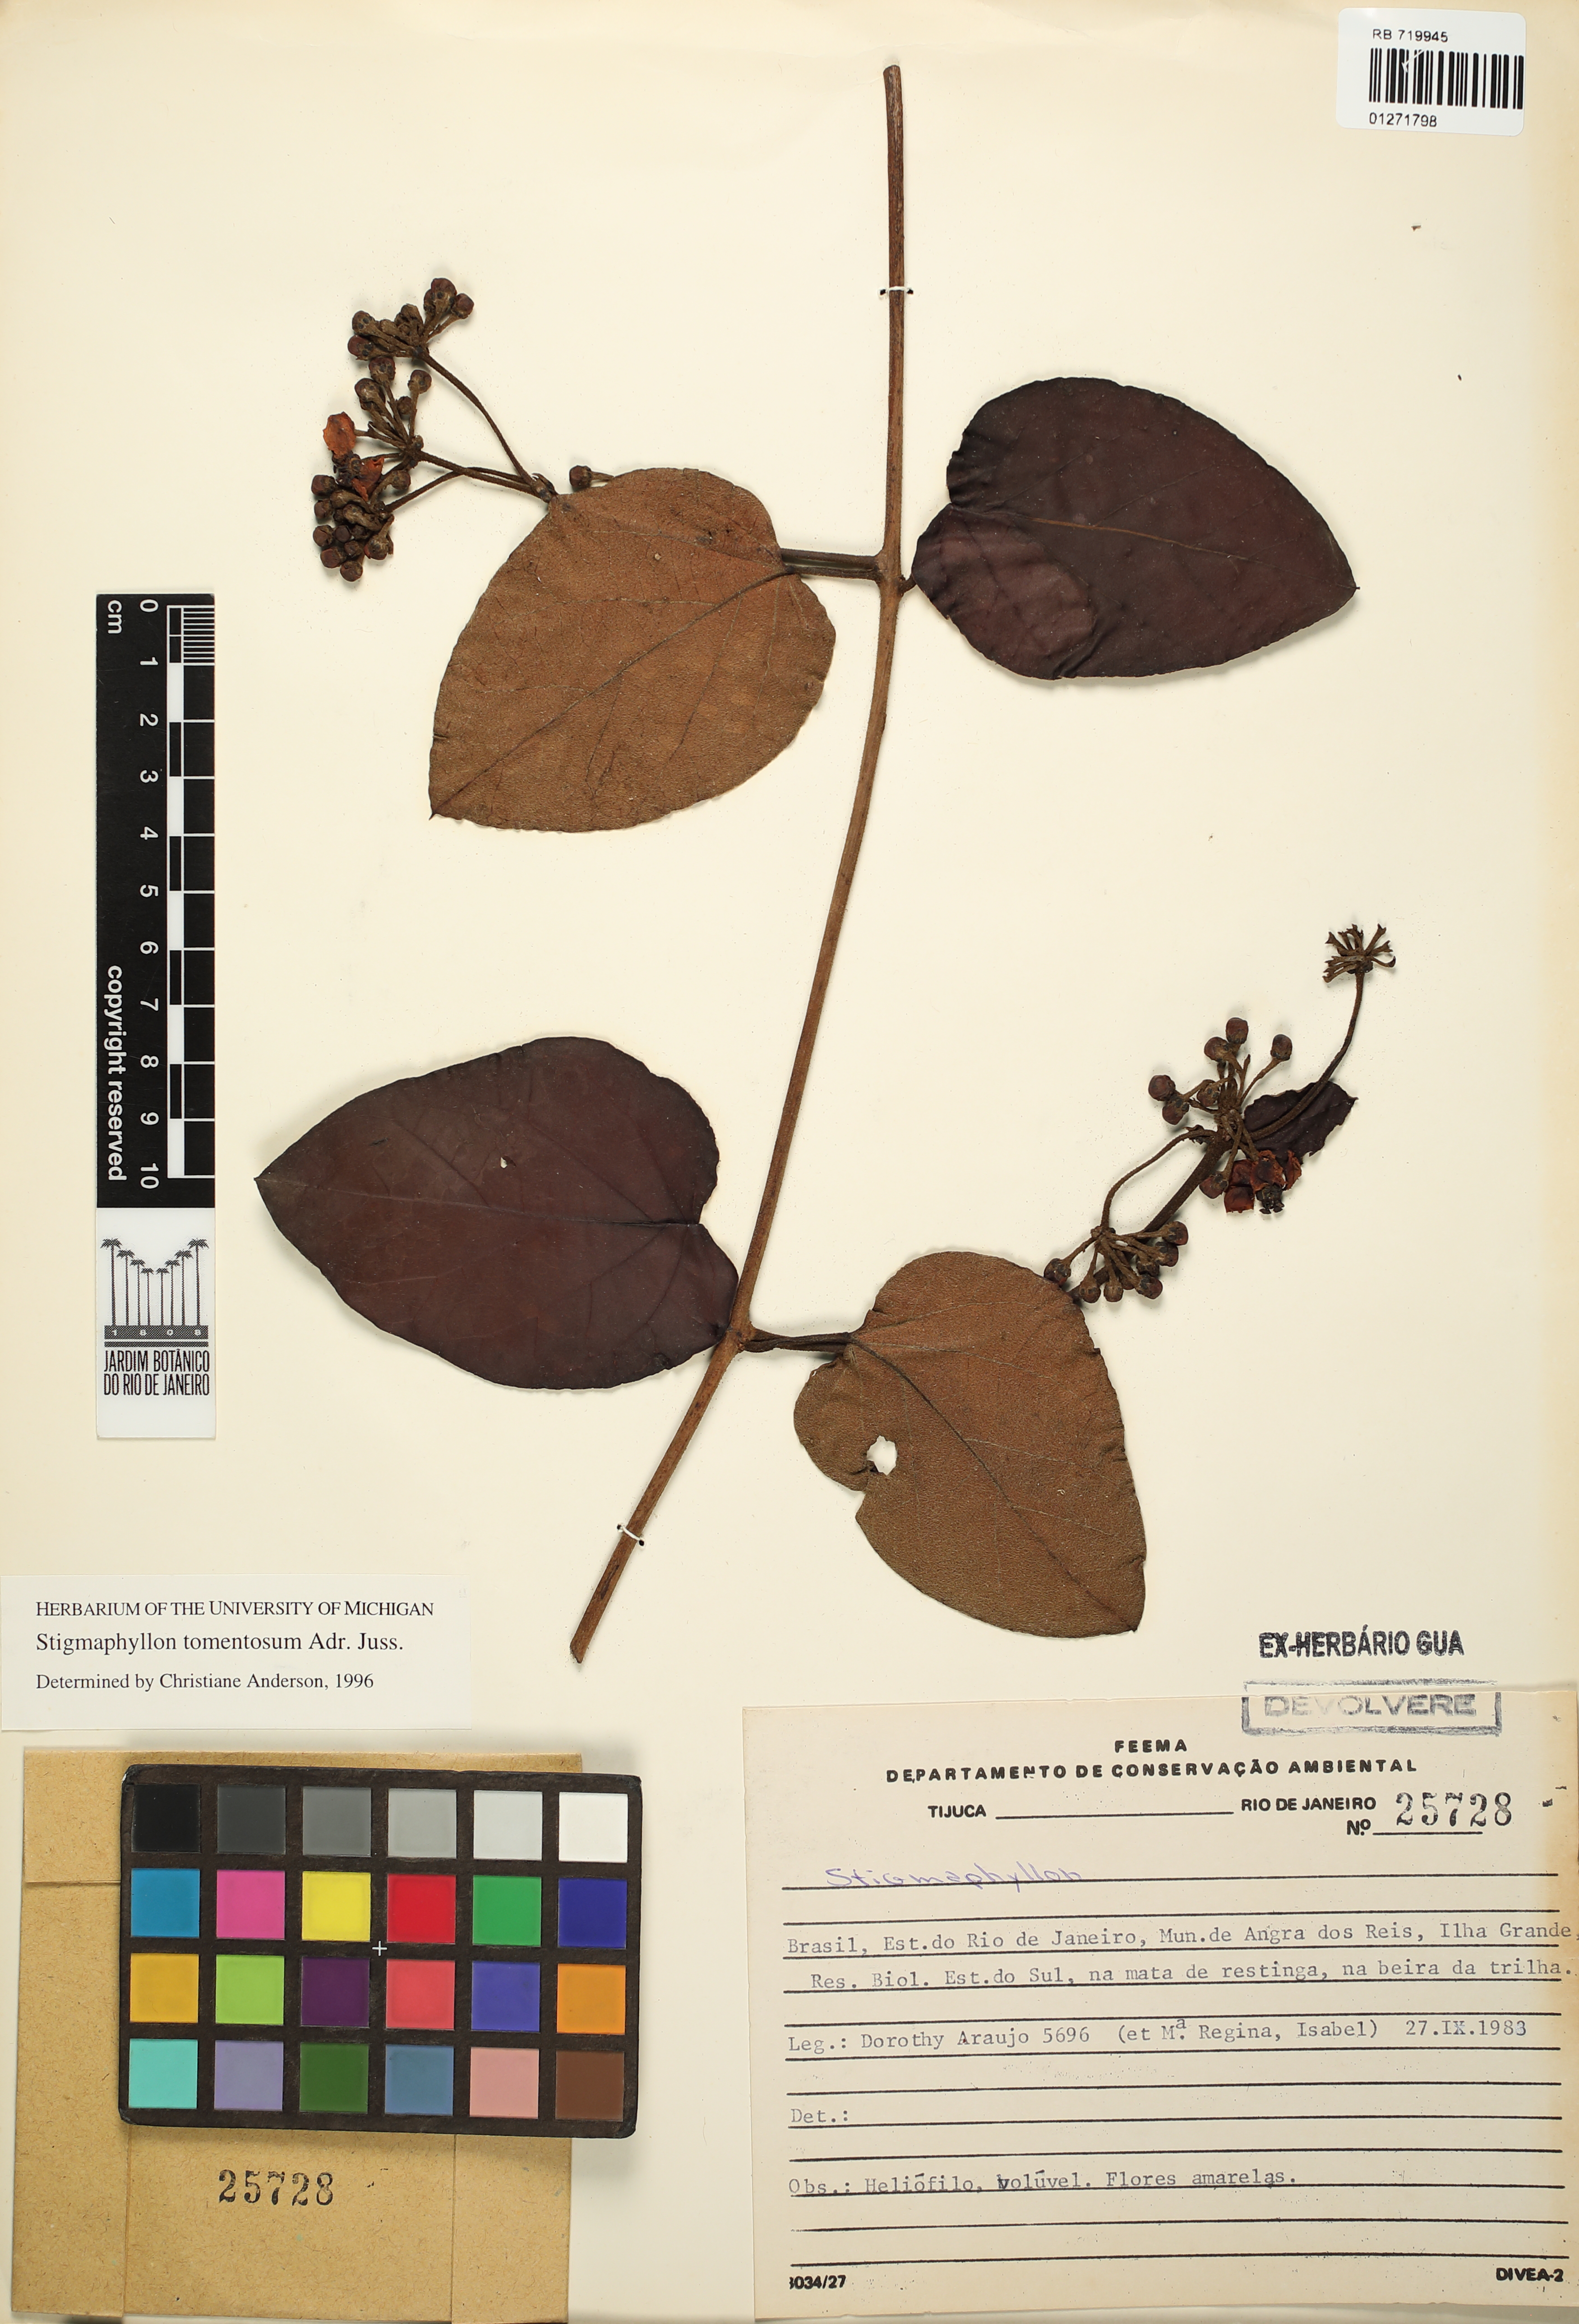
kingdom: Plantae
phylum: Tracheophyta
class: Magnoliopsida
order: Malpighiales
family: Malpighiaceae
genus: Stigmaphyllon
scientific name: Stigmaphyllon tomentosum
